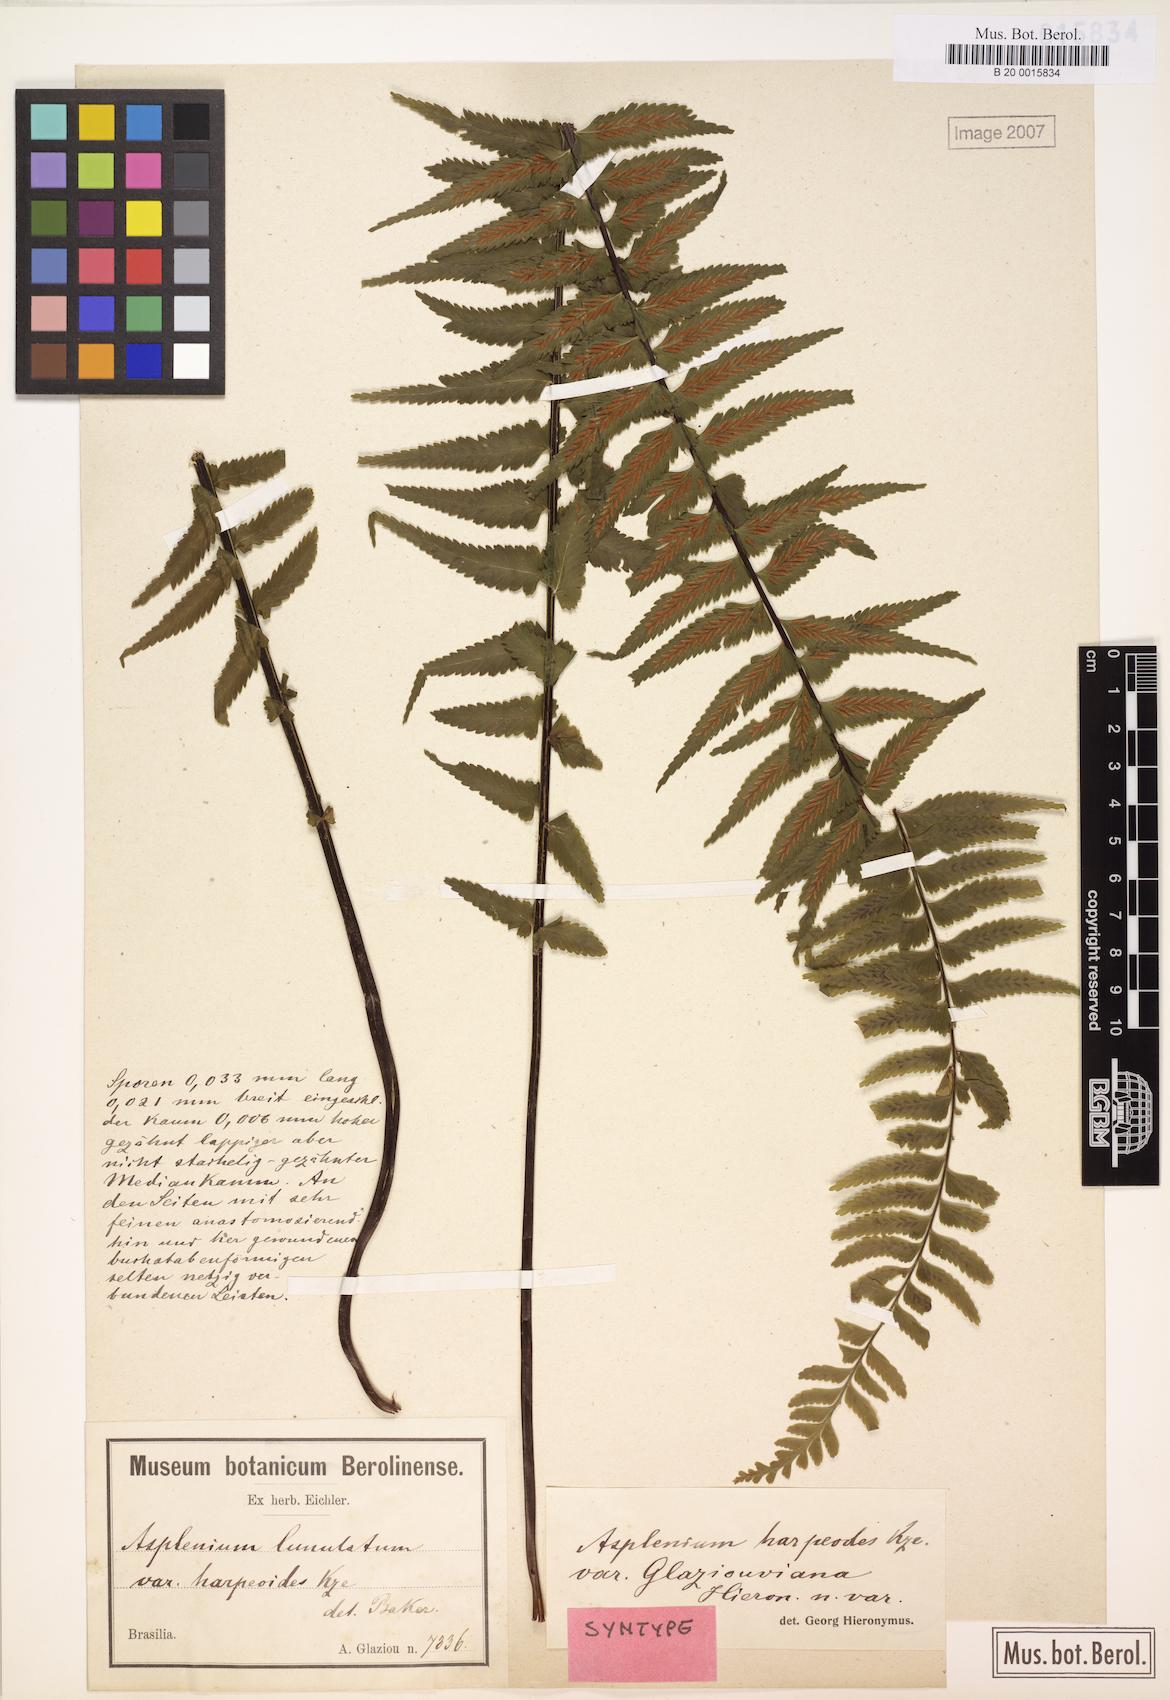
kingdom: Plantae
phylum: Tracheophyta
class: Polypodiopsida
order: Polypodiales
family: Aspleniaceae
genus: Asplenium
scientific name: Asplenium harpeodes
